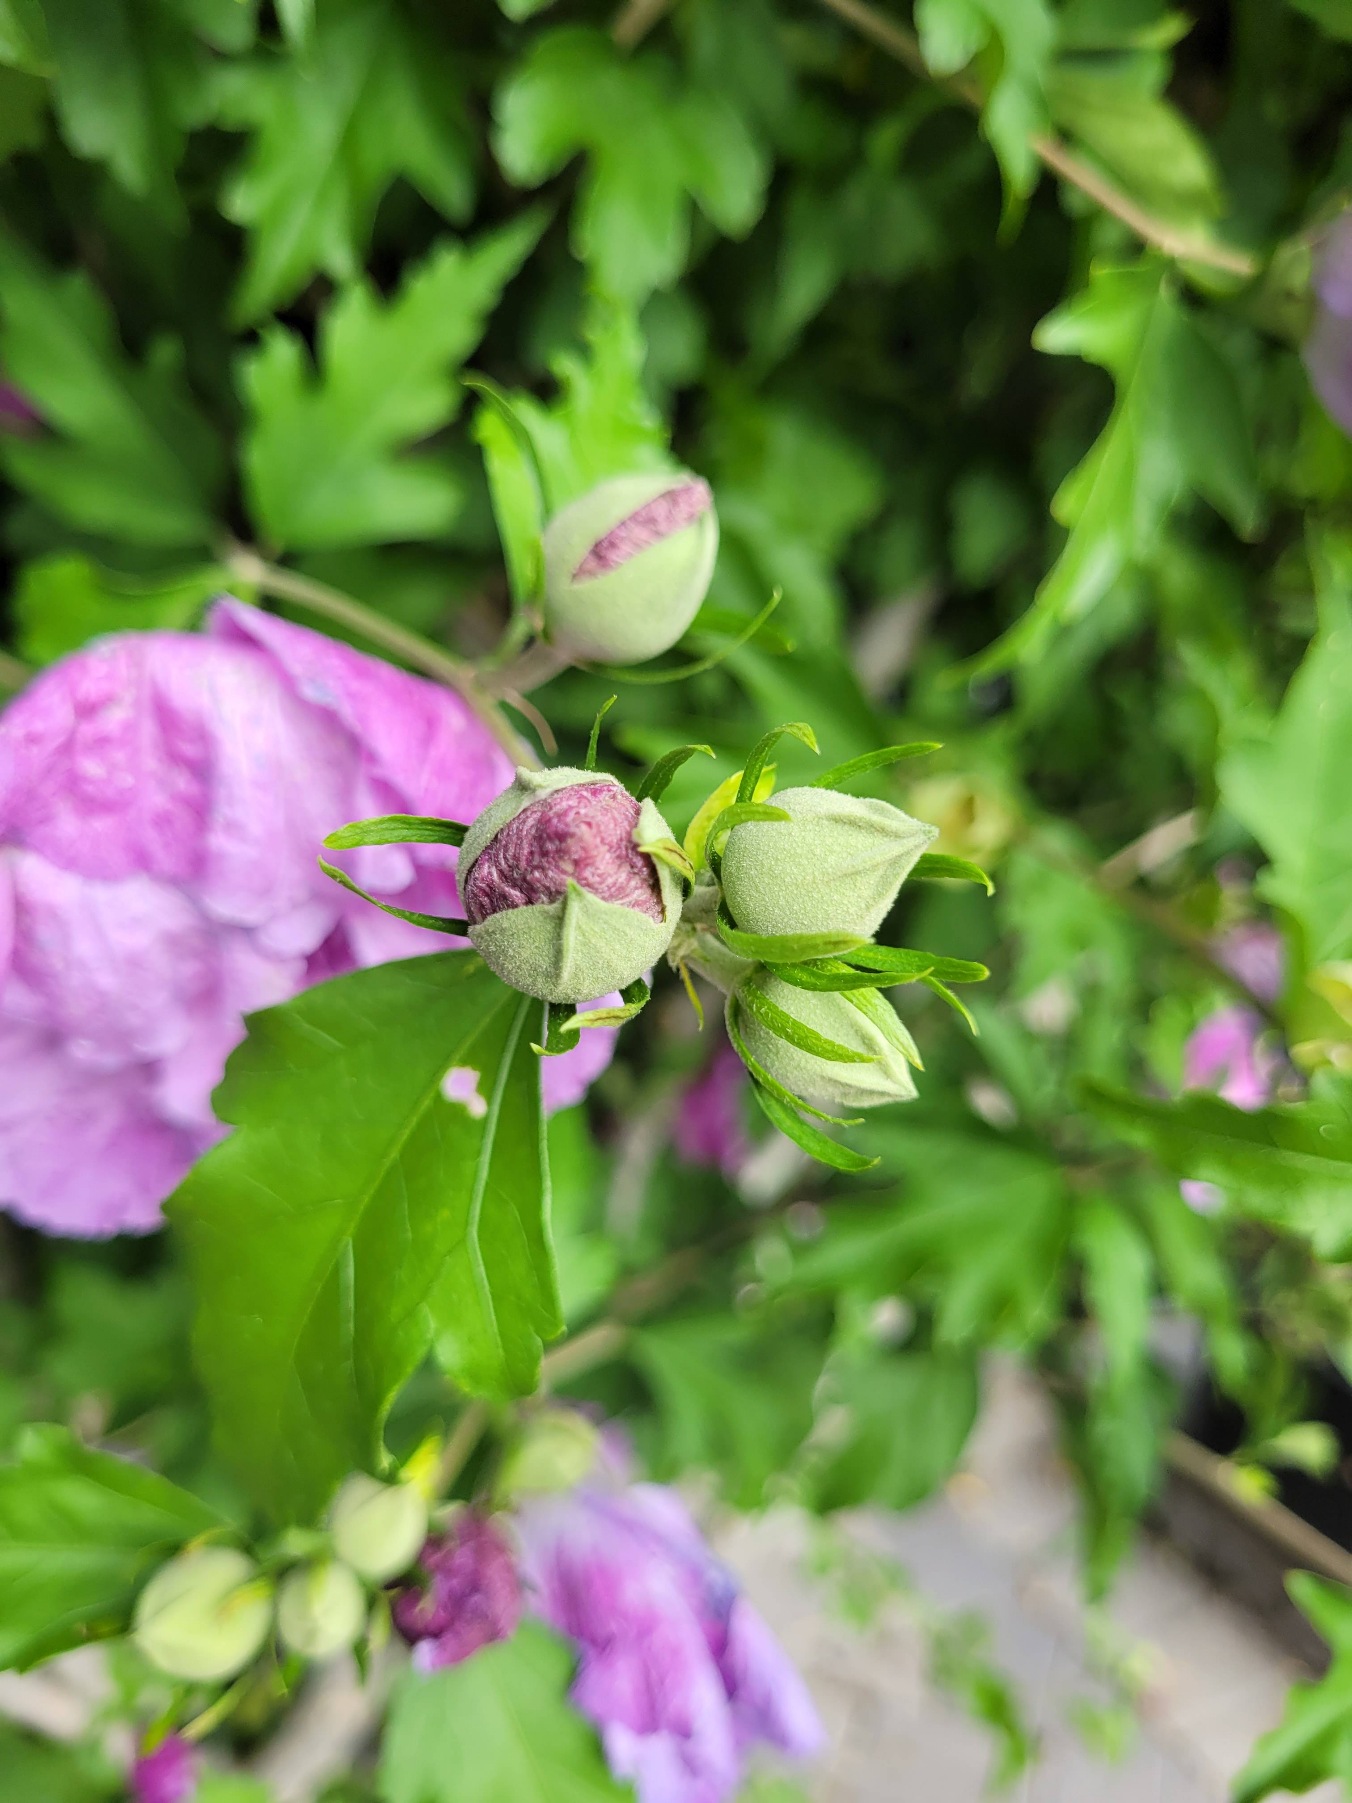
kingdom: Plantae
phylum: Tracheophyta
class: Magnoliopsida
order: Malvales
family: Malvaceae
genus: Hibiscus
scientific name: Hibiscus
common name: Hibiskusslægten
